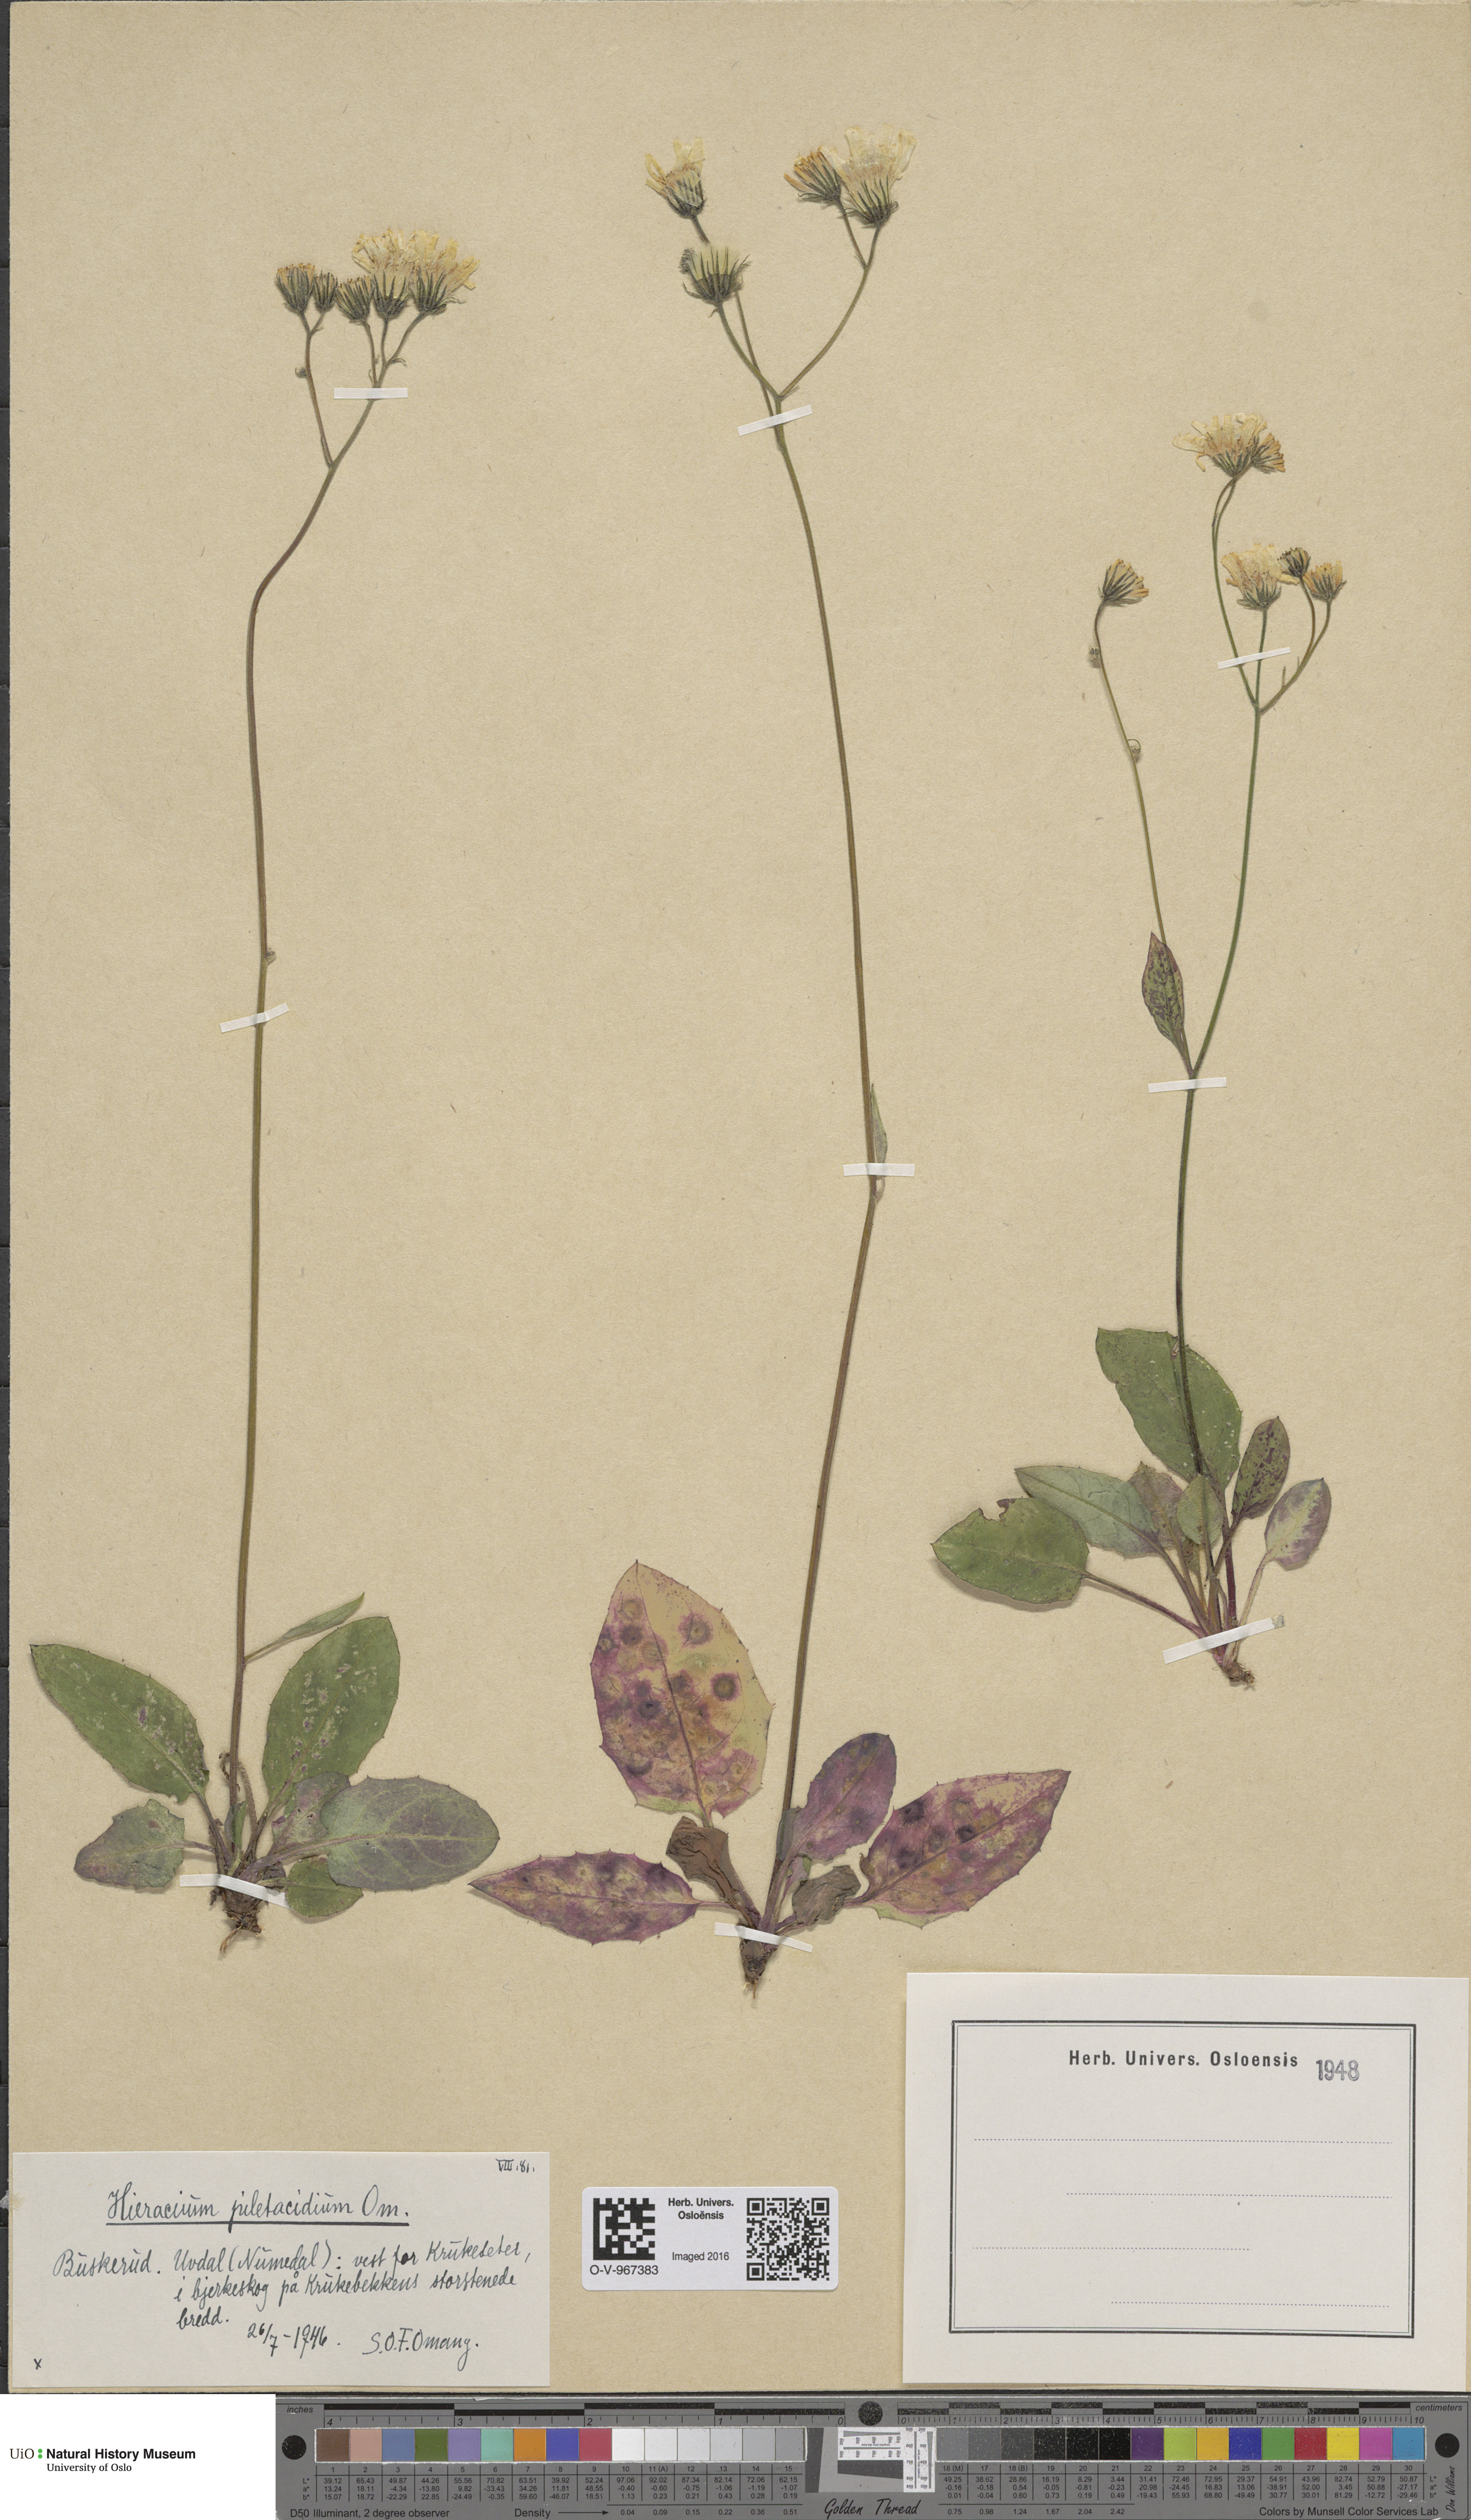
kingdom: Plantae
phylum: Tracheophyta
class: Magnoliopsida
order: Asterales
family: Asteraceae
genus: Hieracium
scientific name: Hieracium
